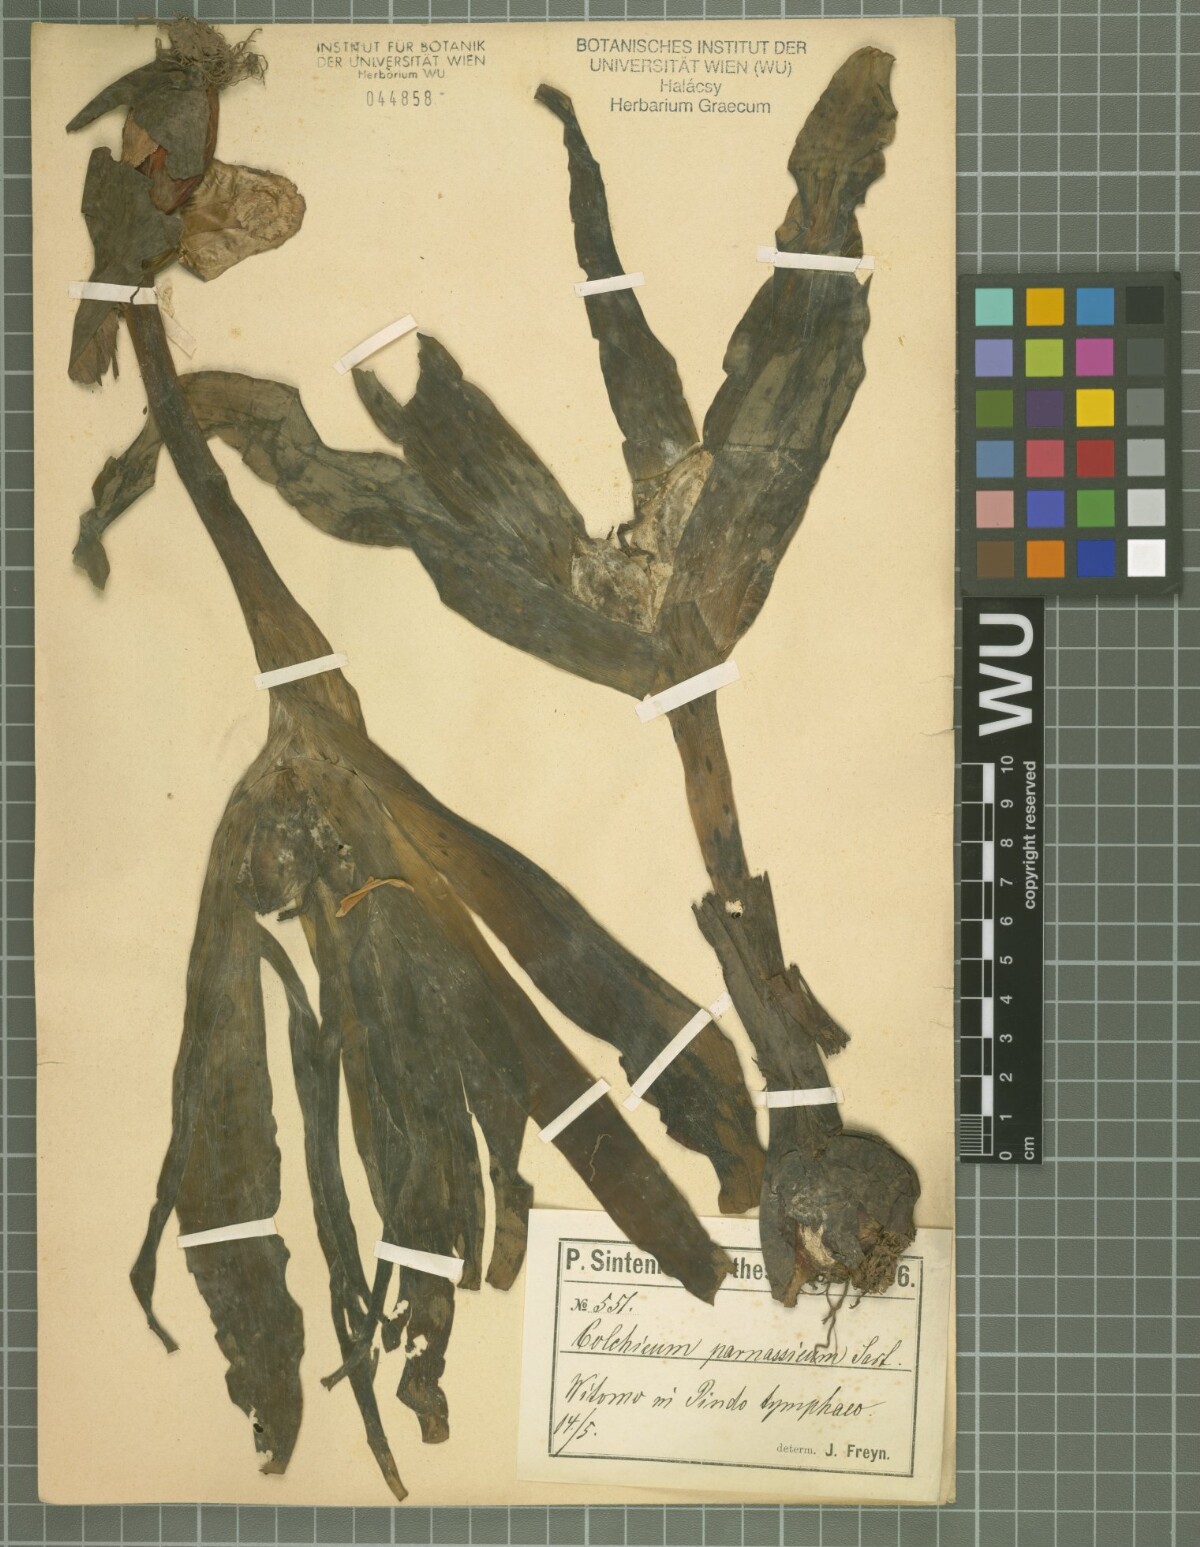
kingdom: Plantae
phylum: Tracheophyta
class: Liliopsida
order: Liliales
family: Colchicaceae
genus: Colchicum
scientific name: Colchicum haynaldii
